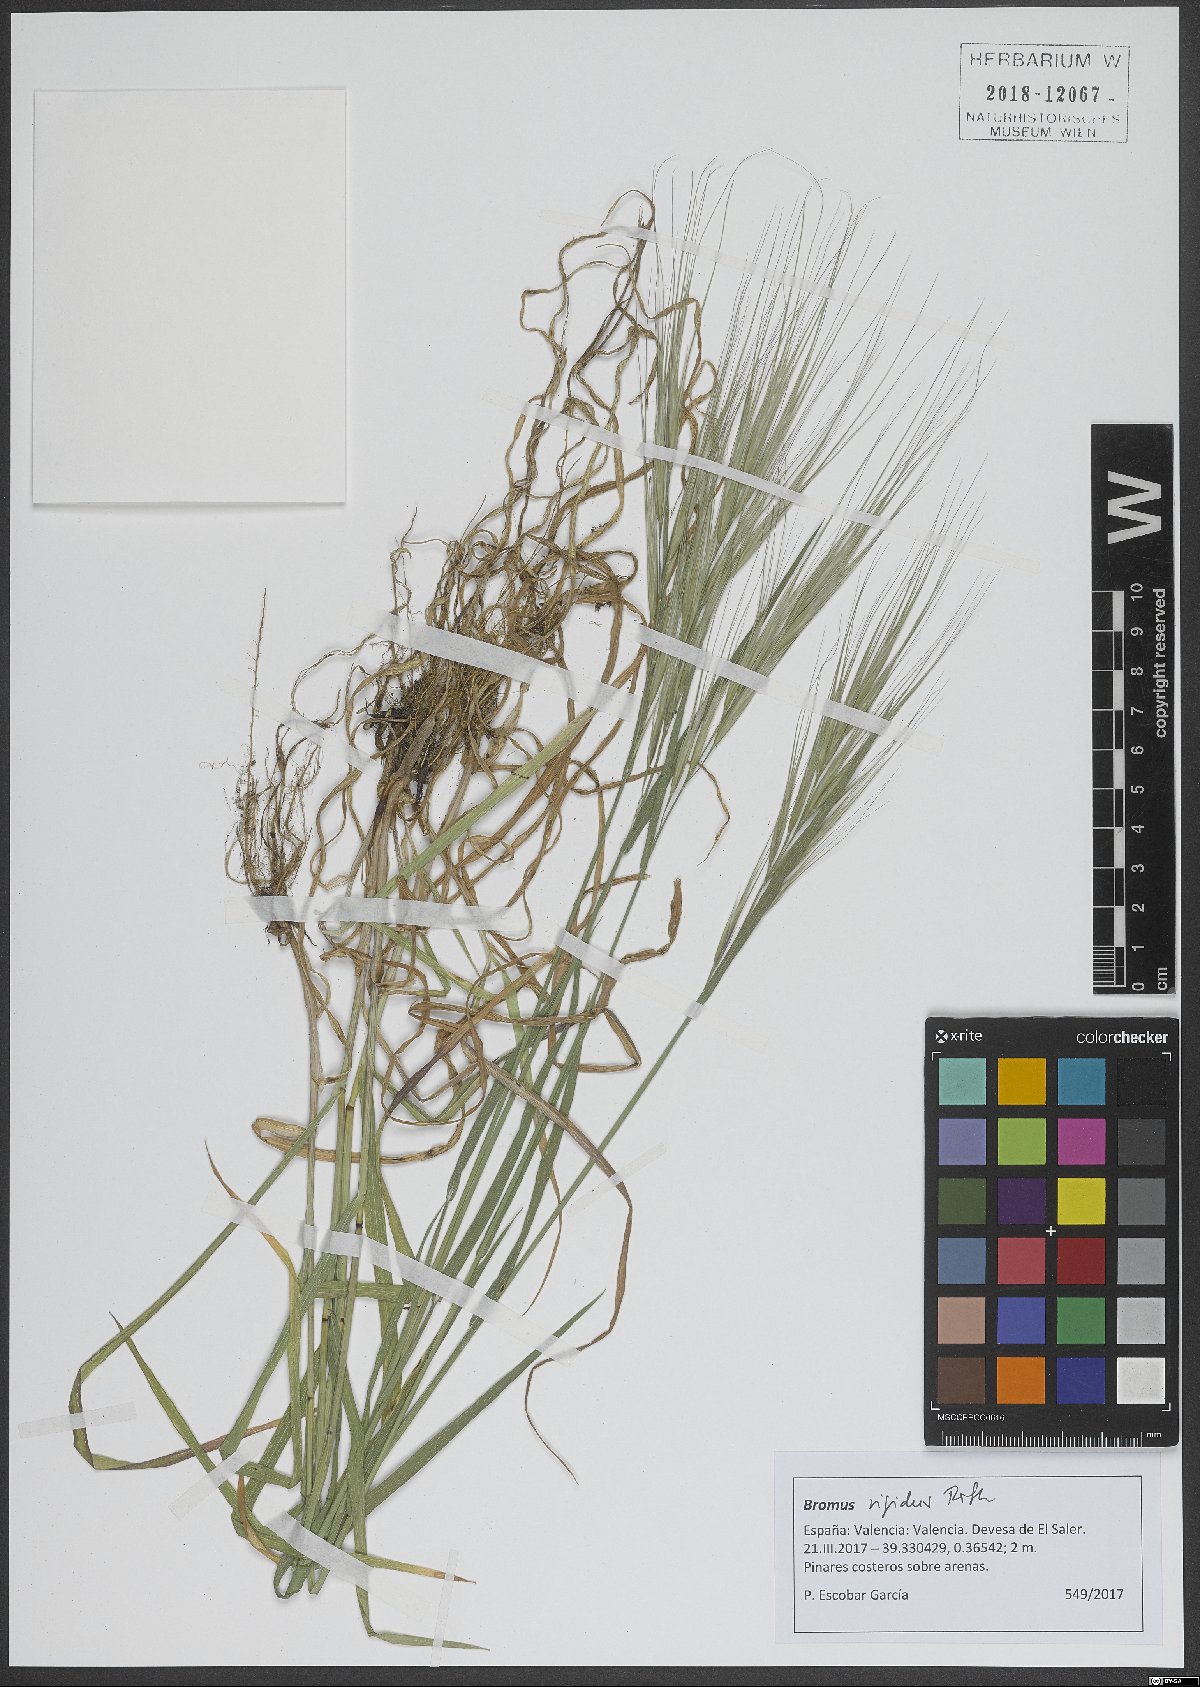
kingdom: Plantae
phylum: Tracheophyta
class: Liliopsida
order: Poales
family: Poaceae
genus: Bromus
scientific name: Bromus rigidus
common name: Ripgut brome
